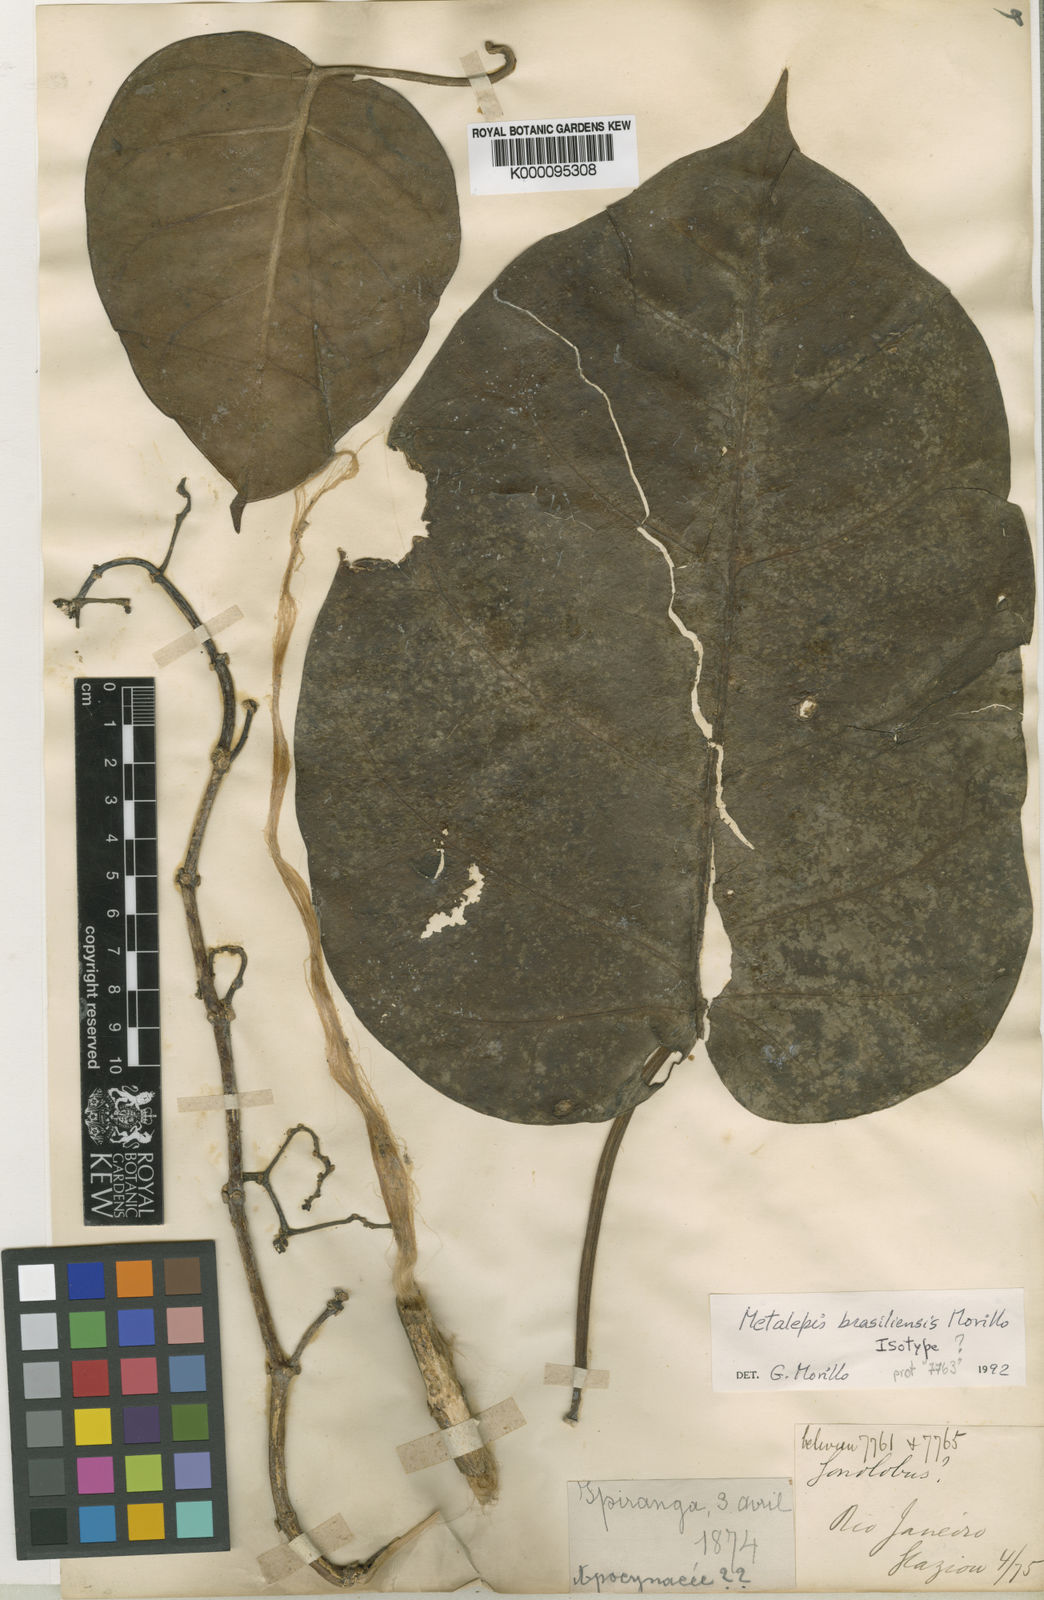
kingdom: Plantae
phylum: Tracheophyta
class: Magnoliopsida
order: Gentianales
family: Apocynaceae
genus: Cynanchum
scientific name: Cynanchum brasiliense
